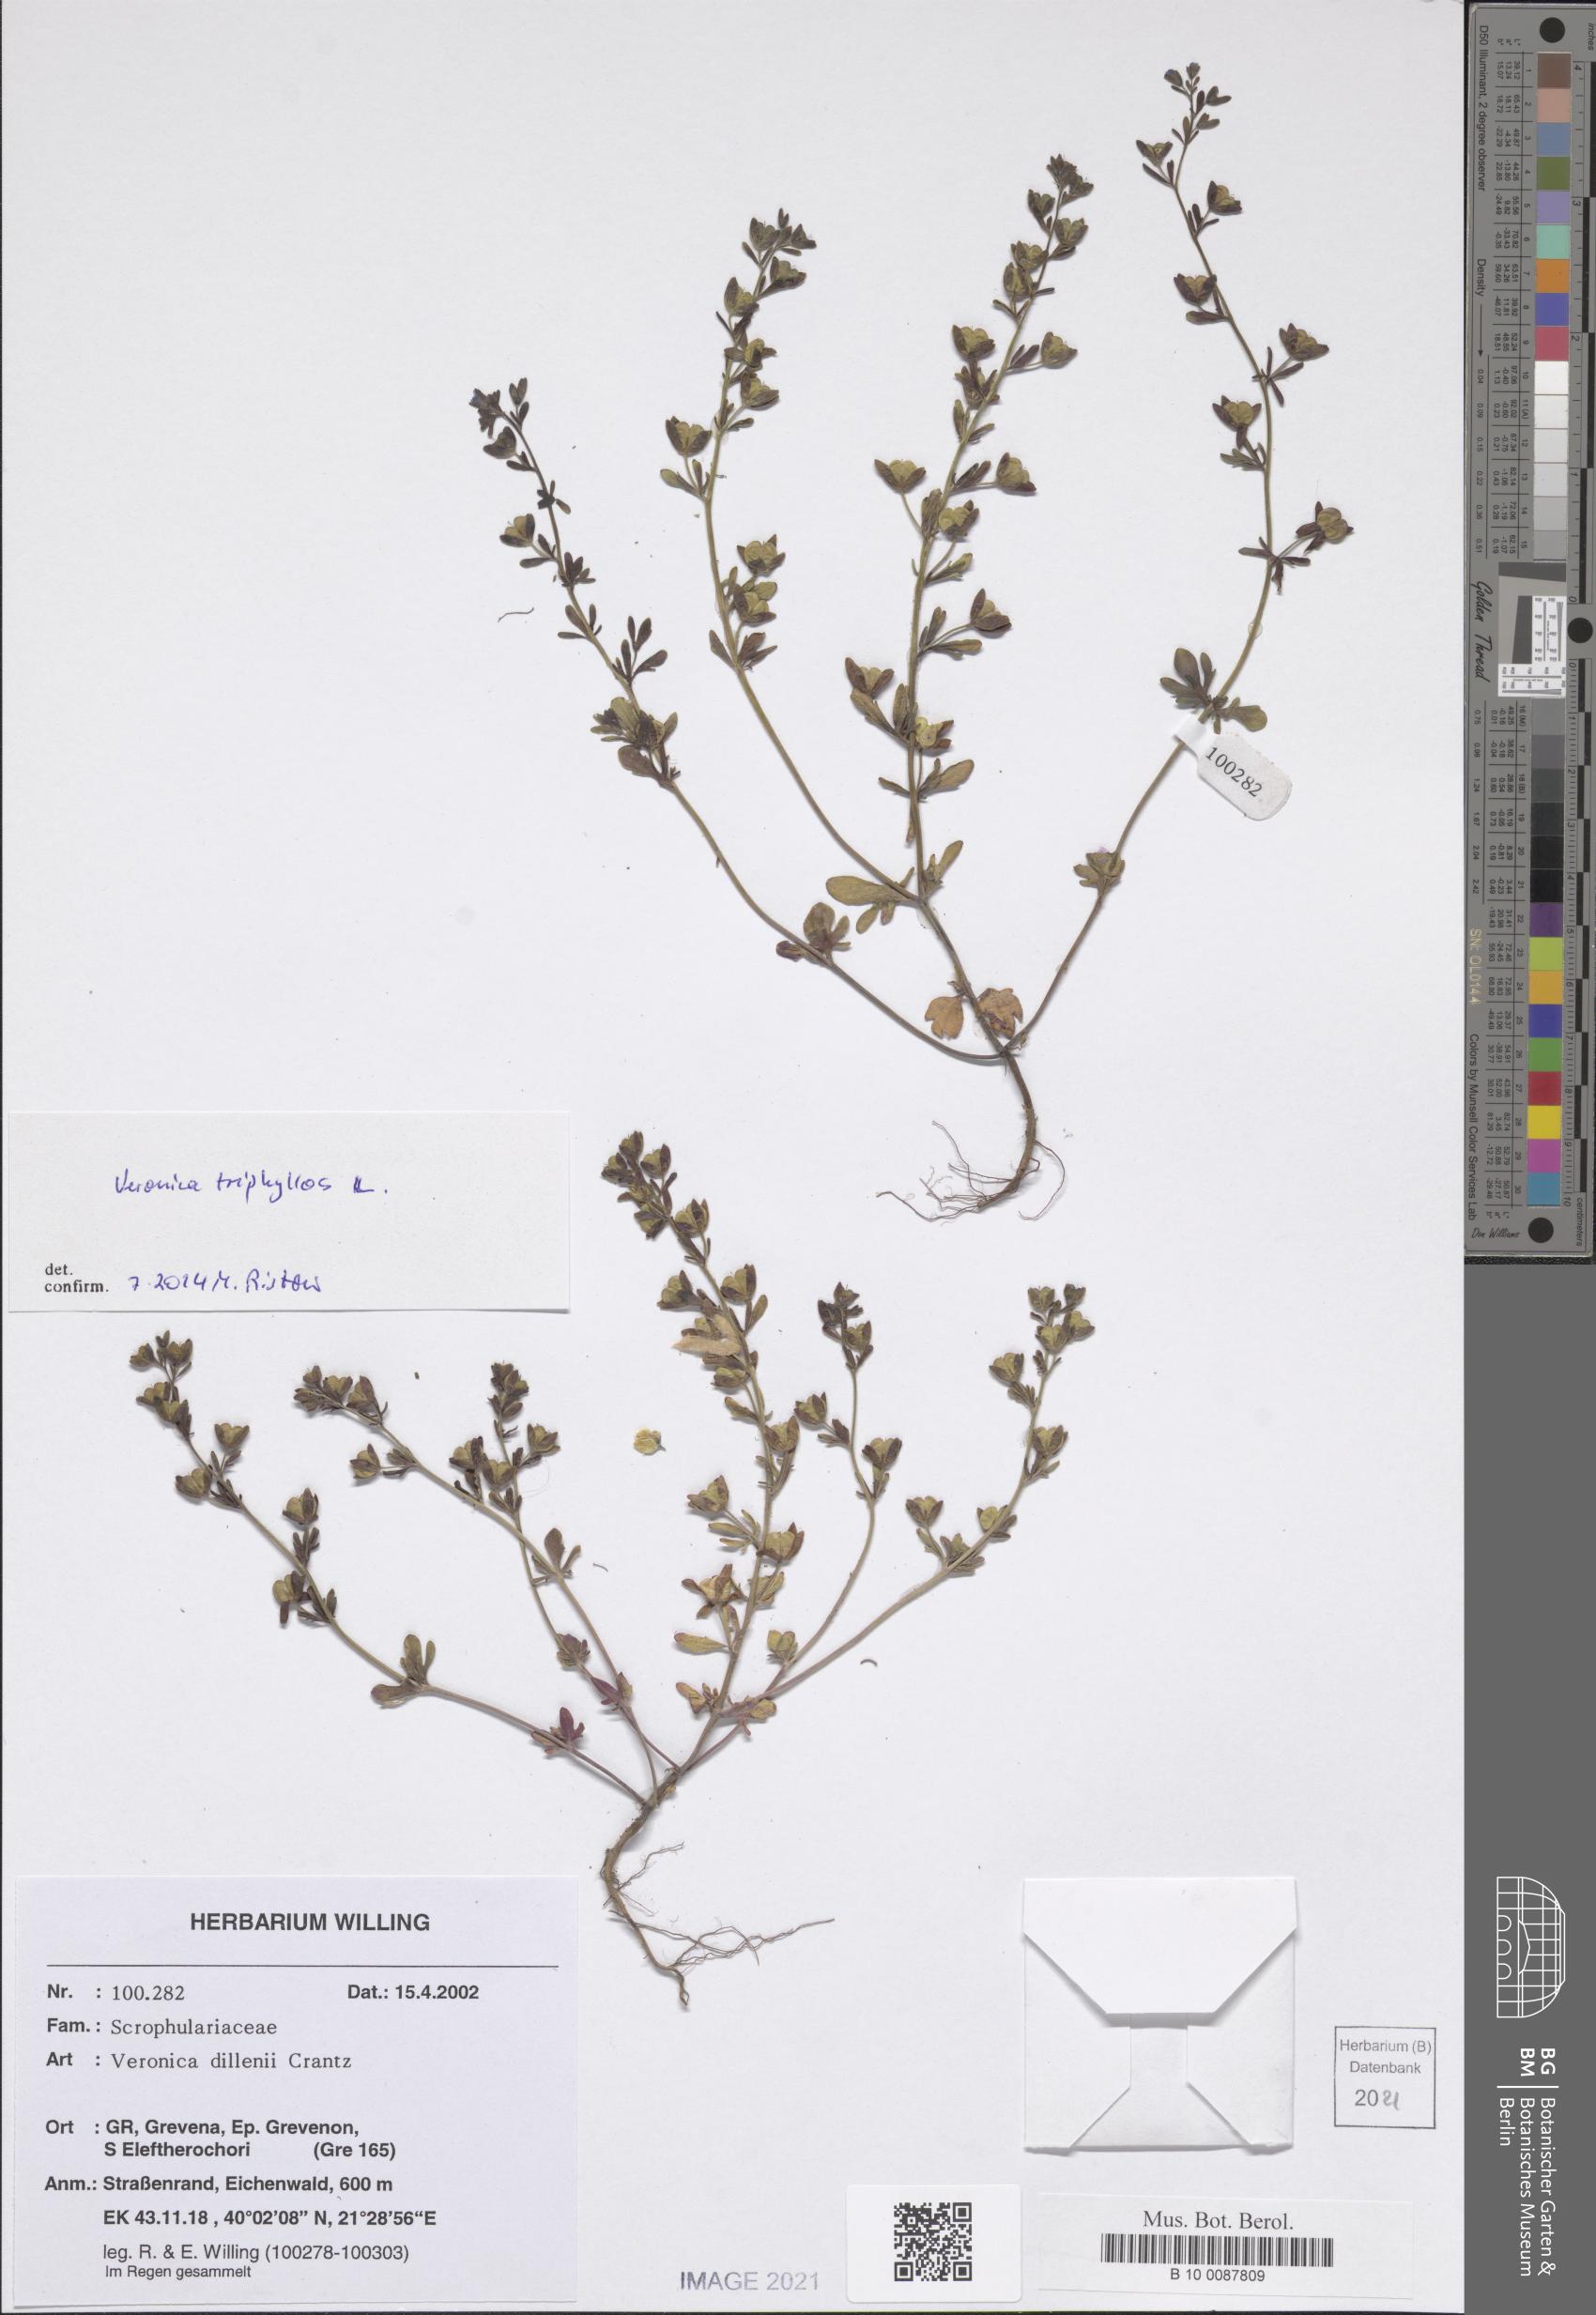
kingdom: Plantae
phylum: Tracheophyta
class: Magnoliopsida
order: Lamiales
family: Plantaginaceae
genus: Veronica
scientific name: Veronica triphyllos
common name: Fingered speedwell
